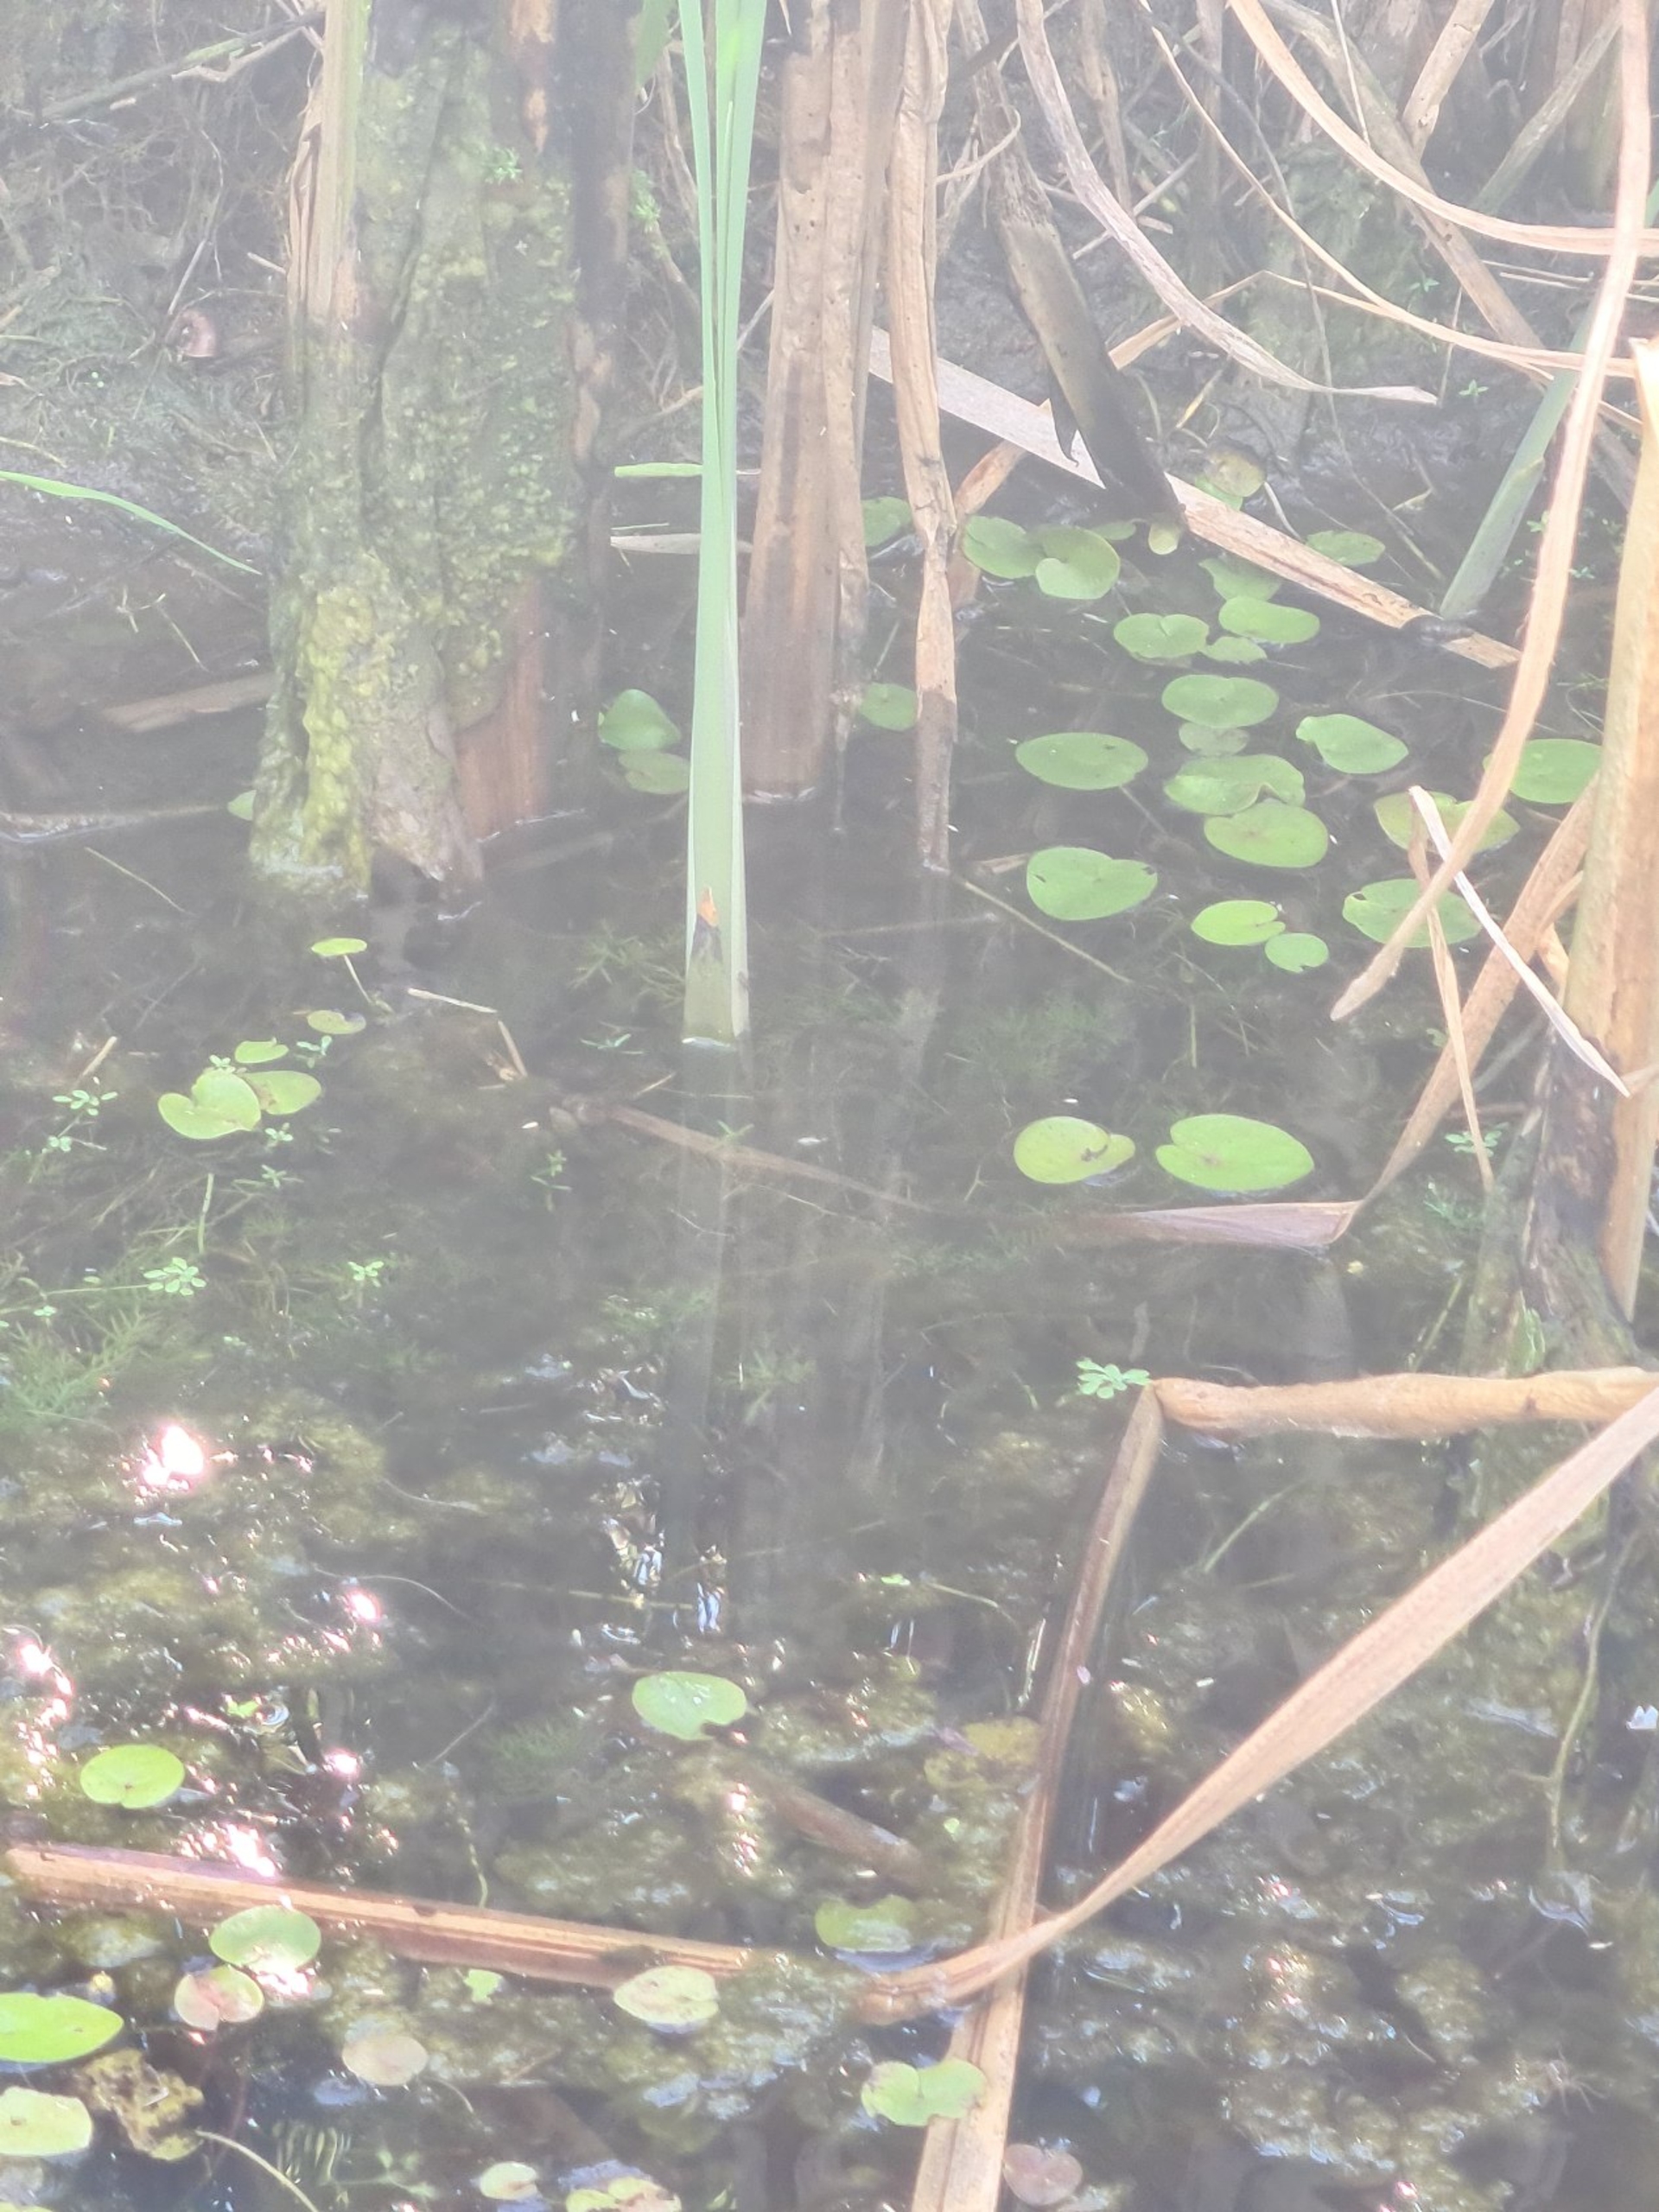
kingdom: Plantae
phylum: Tracheophyta
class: Magnoliopsida
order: Ericales
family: Primulaceae
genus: Hottonia
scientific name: Hottonia palustris
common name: Vandrøllike
